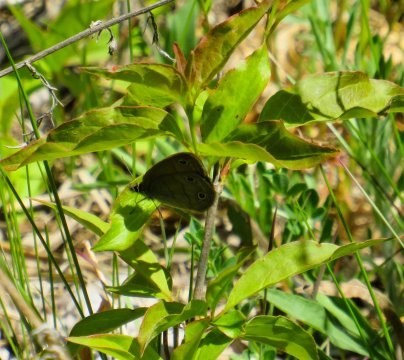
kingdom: Animalia
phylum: Arthropoda
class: Insecta
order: Lepidoptera
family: Nymphalidae
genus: Euptychia
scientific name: Euptychia cymela
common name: Little Wood Satyr
